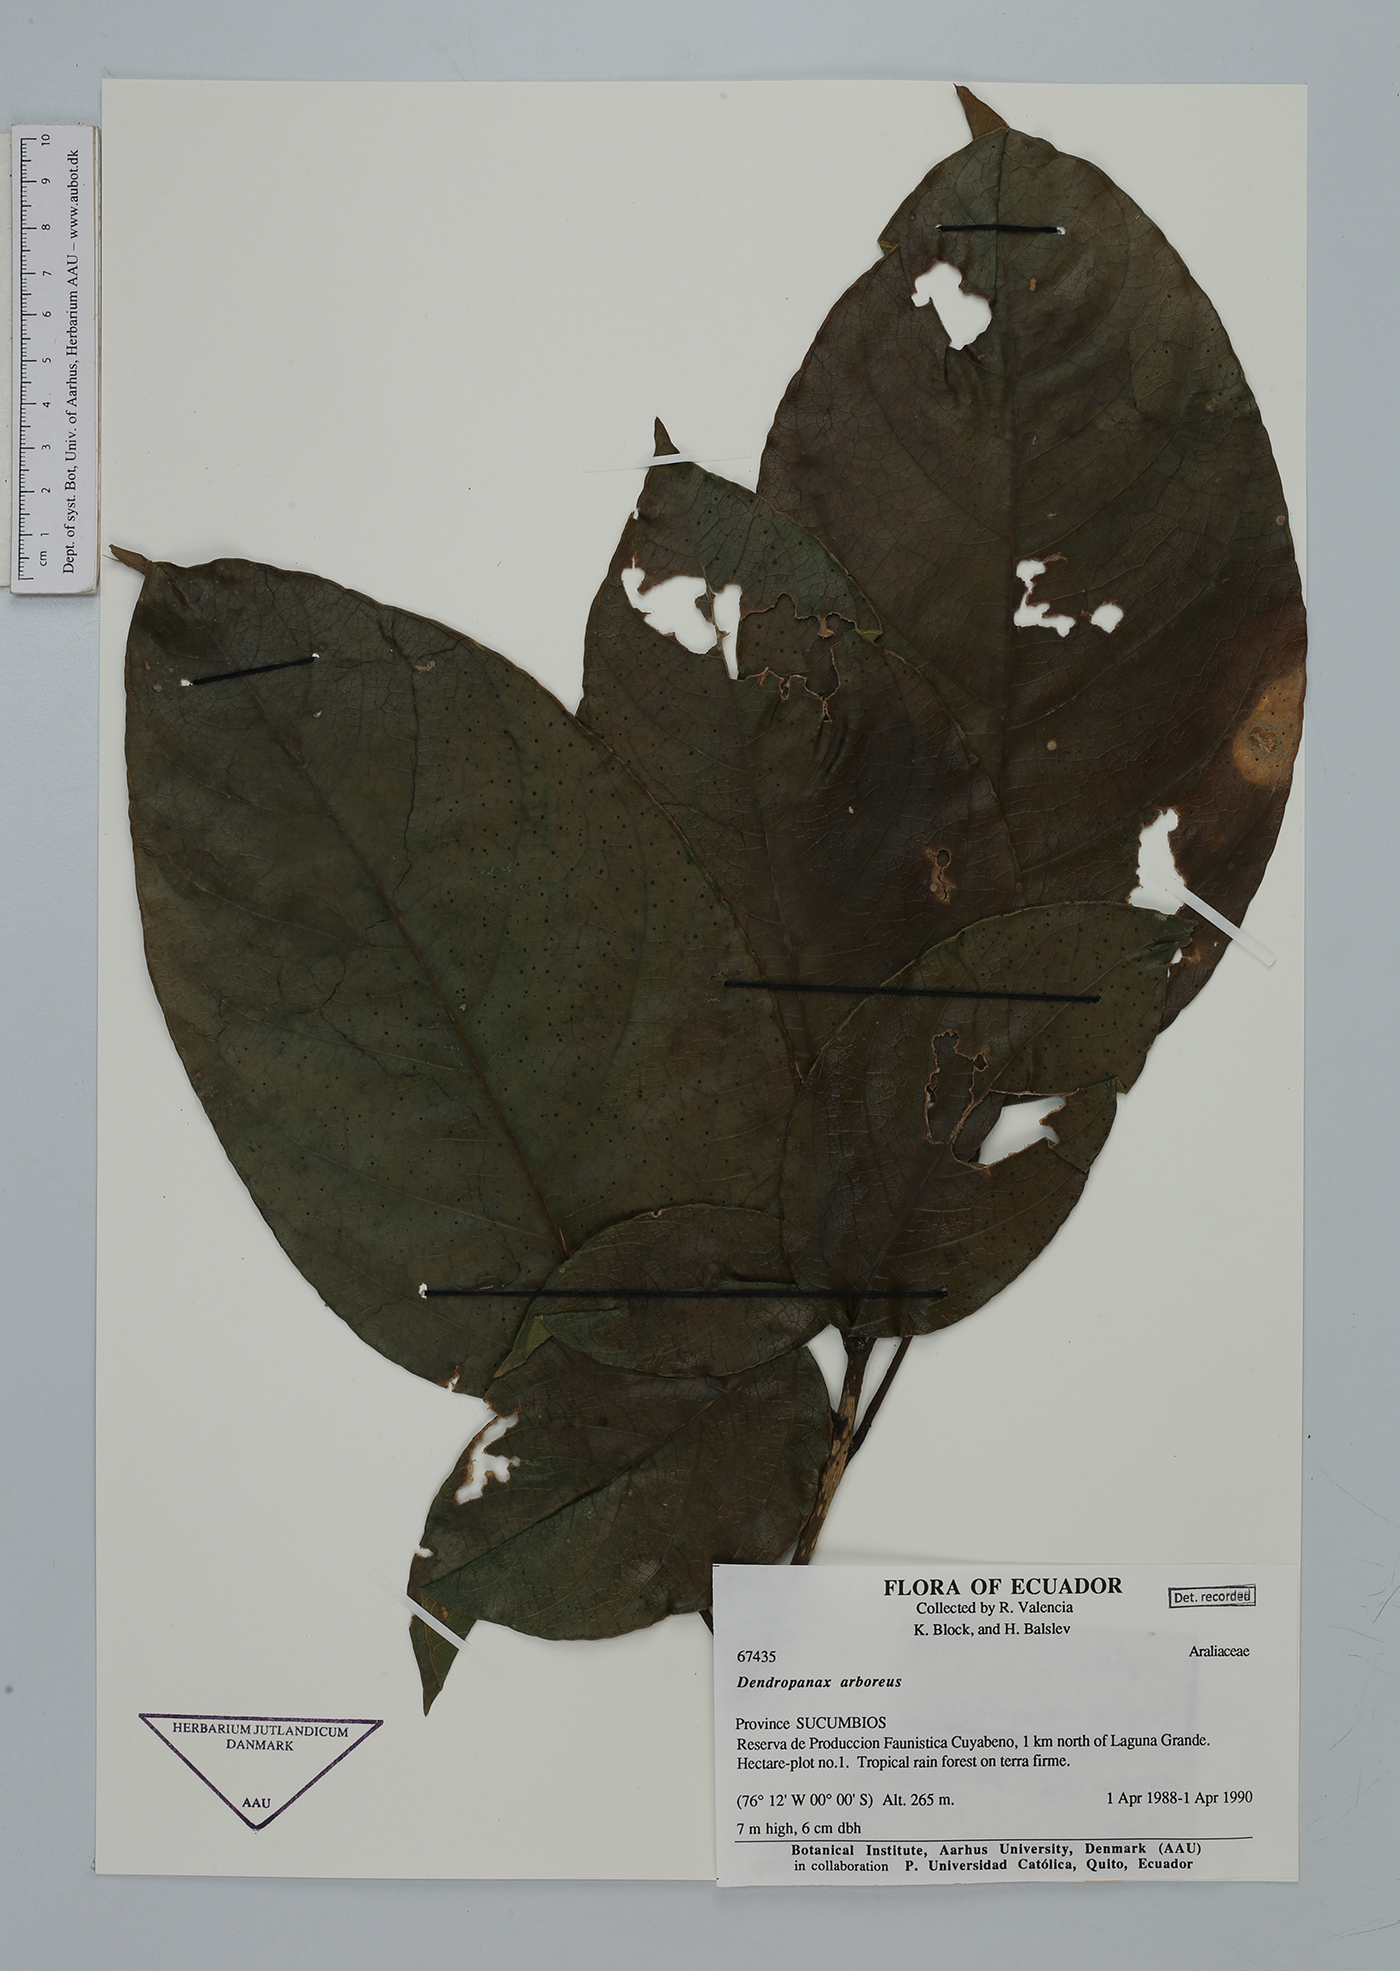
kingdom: Plantae
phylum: Tracheophyta
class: Magnoliopsida
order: Apiales
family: Araliaceae
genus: Dendropanax
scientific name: Dendropanax arboreus
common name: Potato-wood
